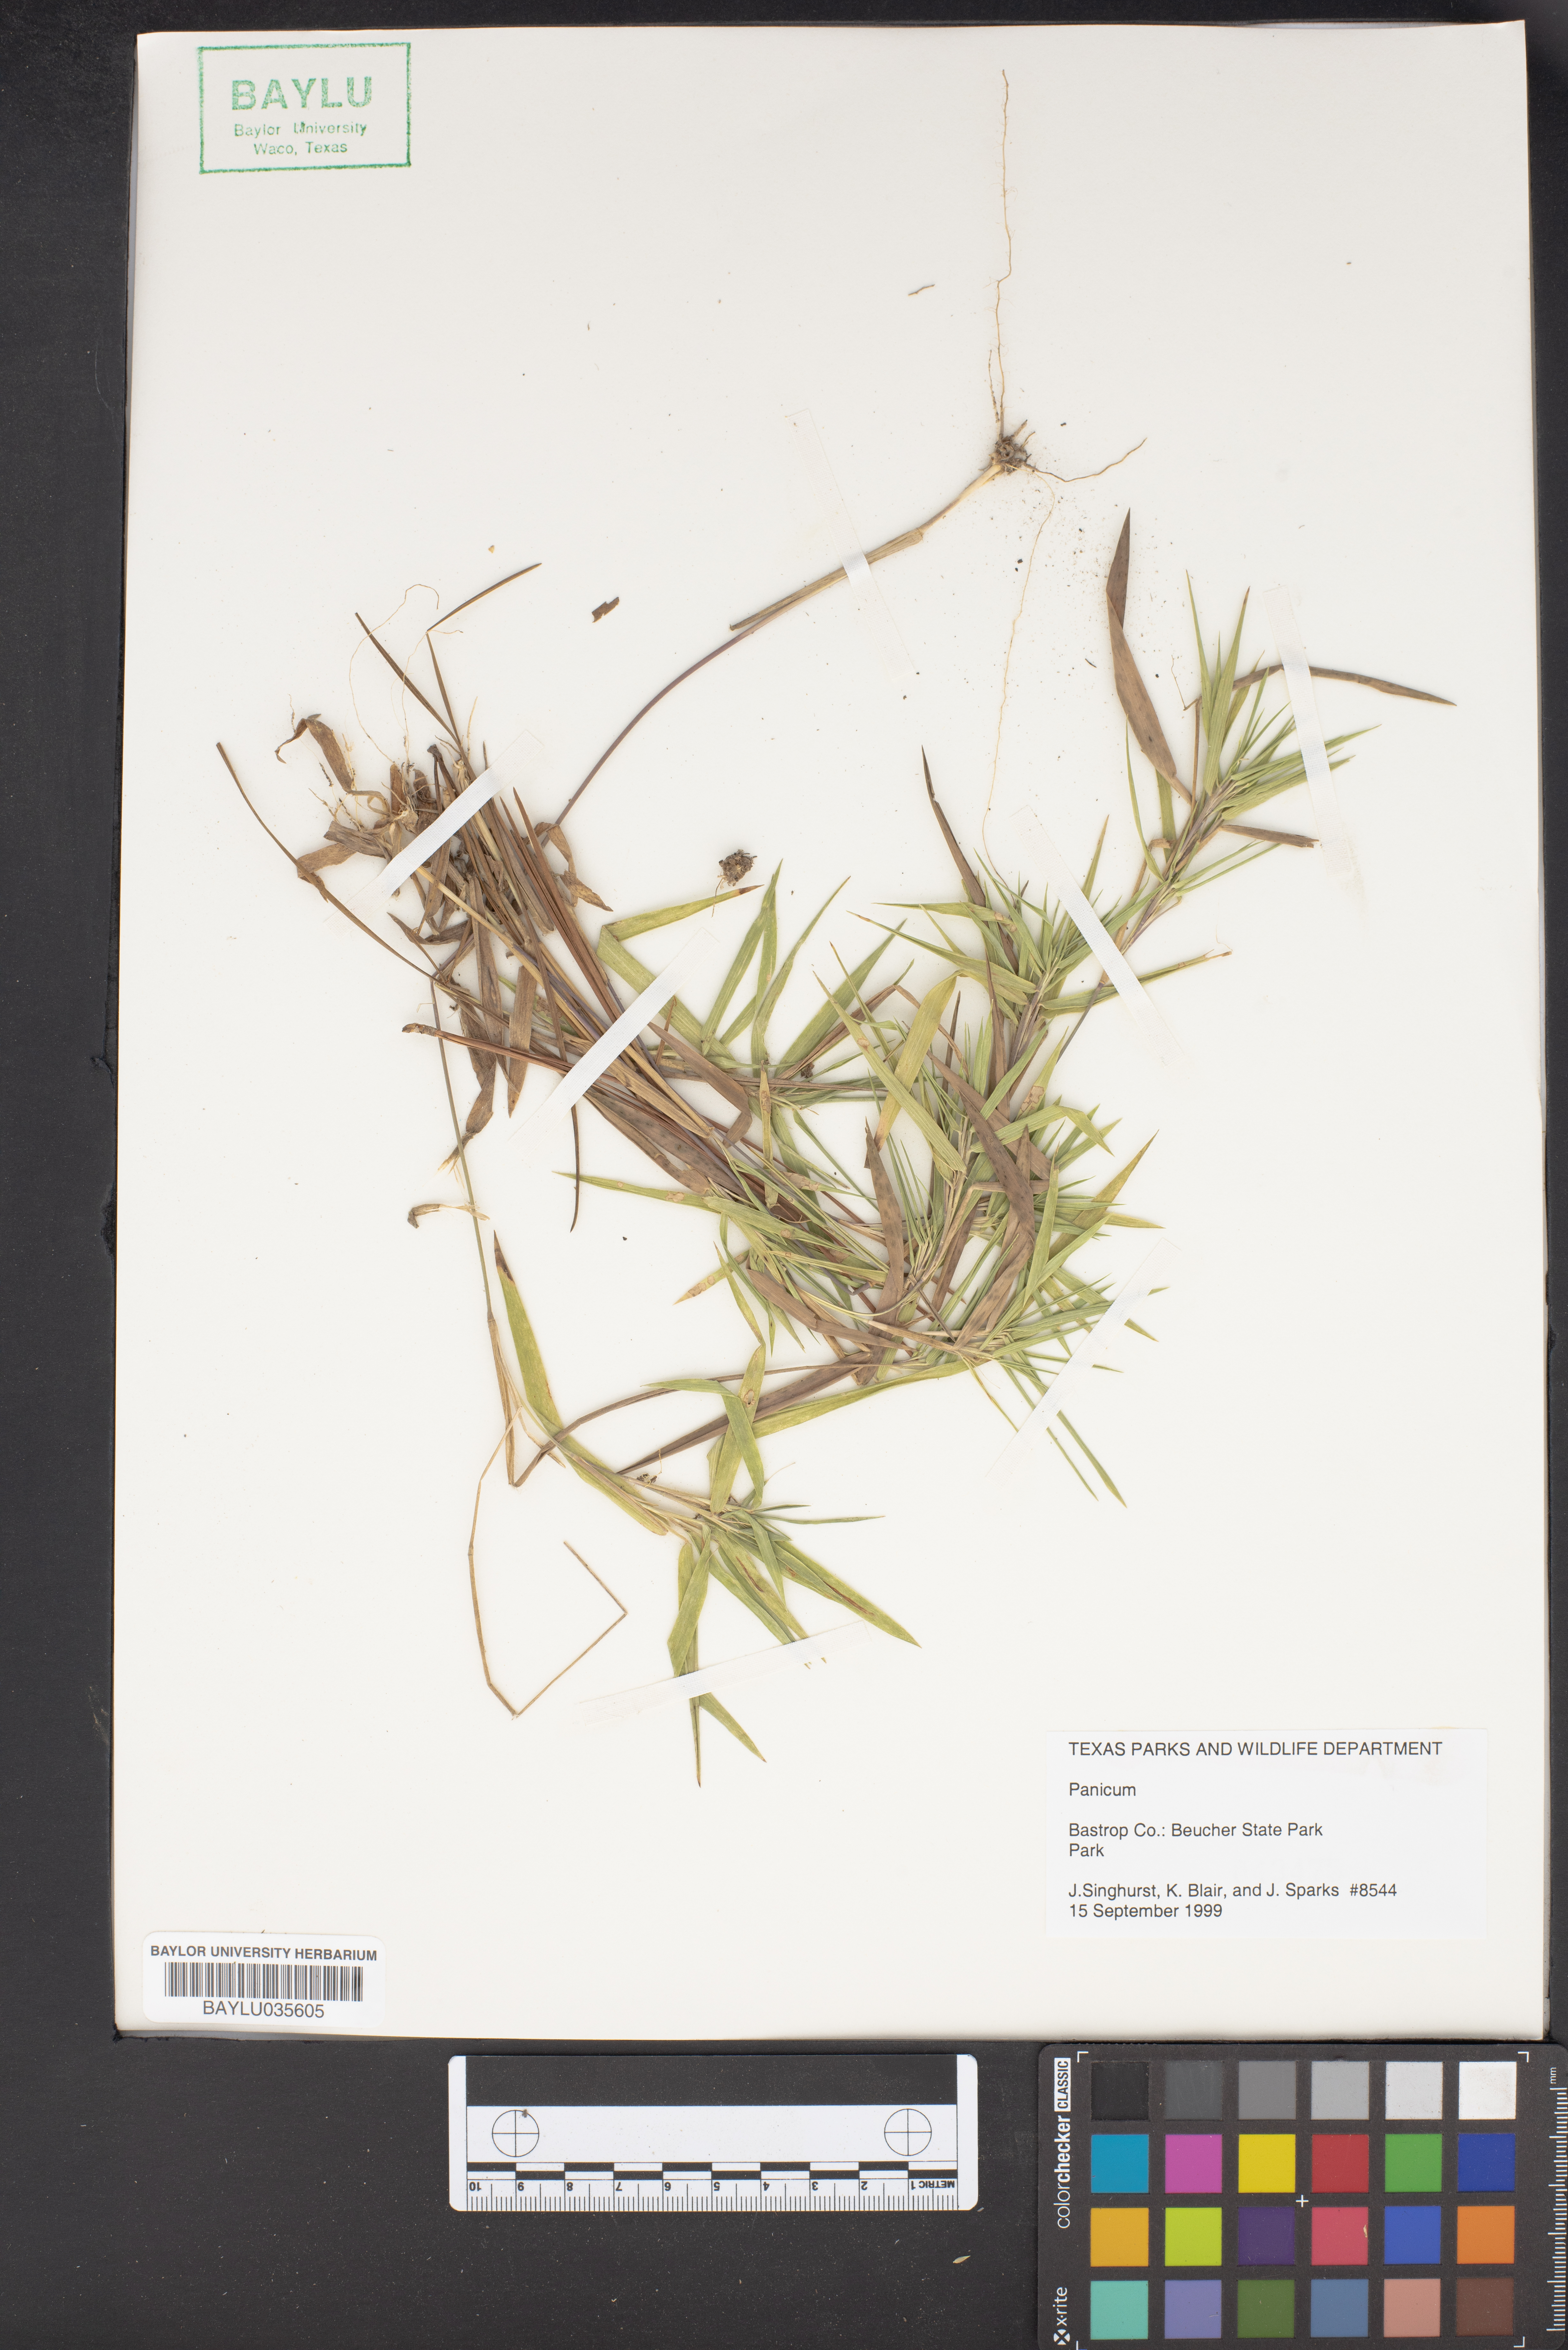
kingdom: Plantae
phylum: Tracheophyta
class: Liliopsida
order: Poales
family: Poaceae
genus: Panicum
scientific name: Panicum
